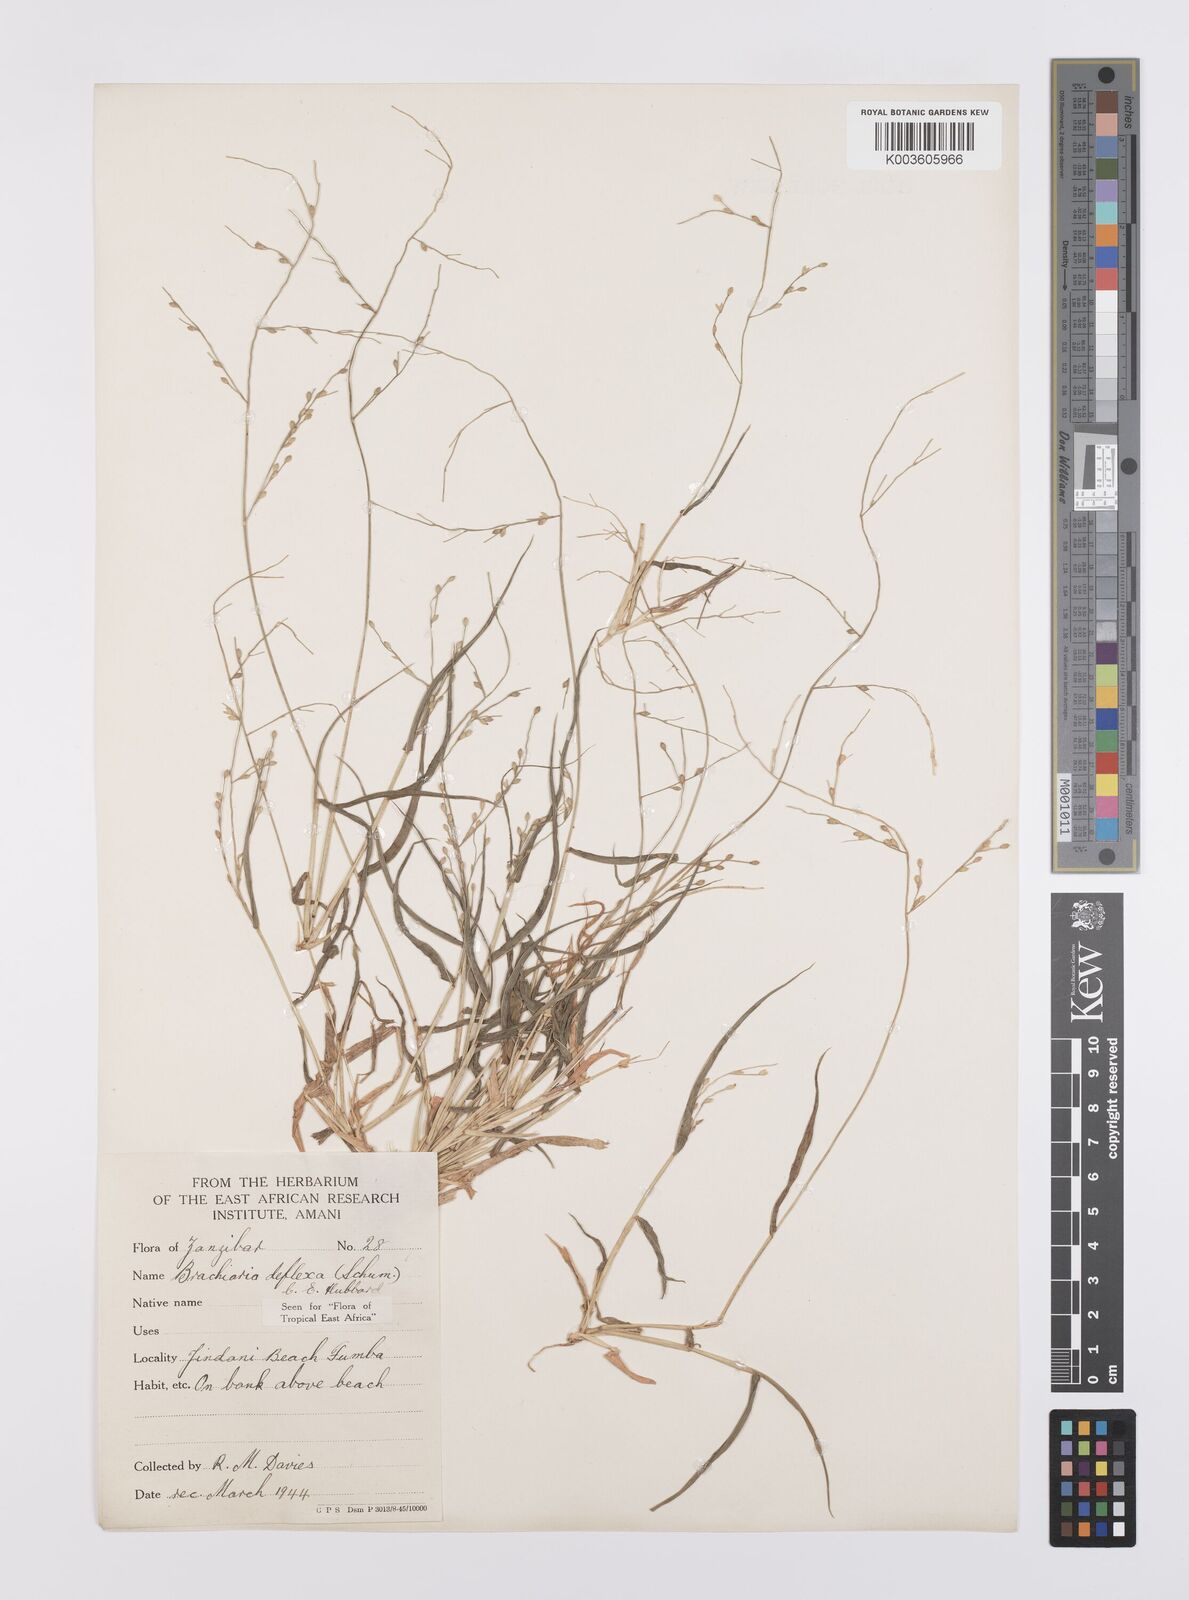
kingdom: Plantae
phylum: Tracheophyta
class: Liliopsida
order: Poales
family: Poaceae
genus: Urochloa
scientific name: Urochloa deflexa
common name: Guinea millet
